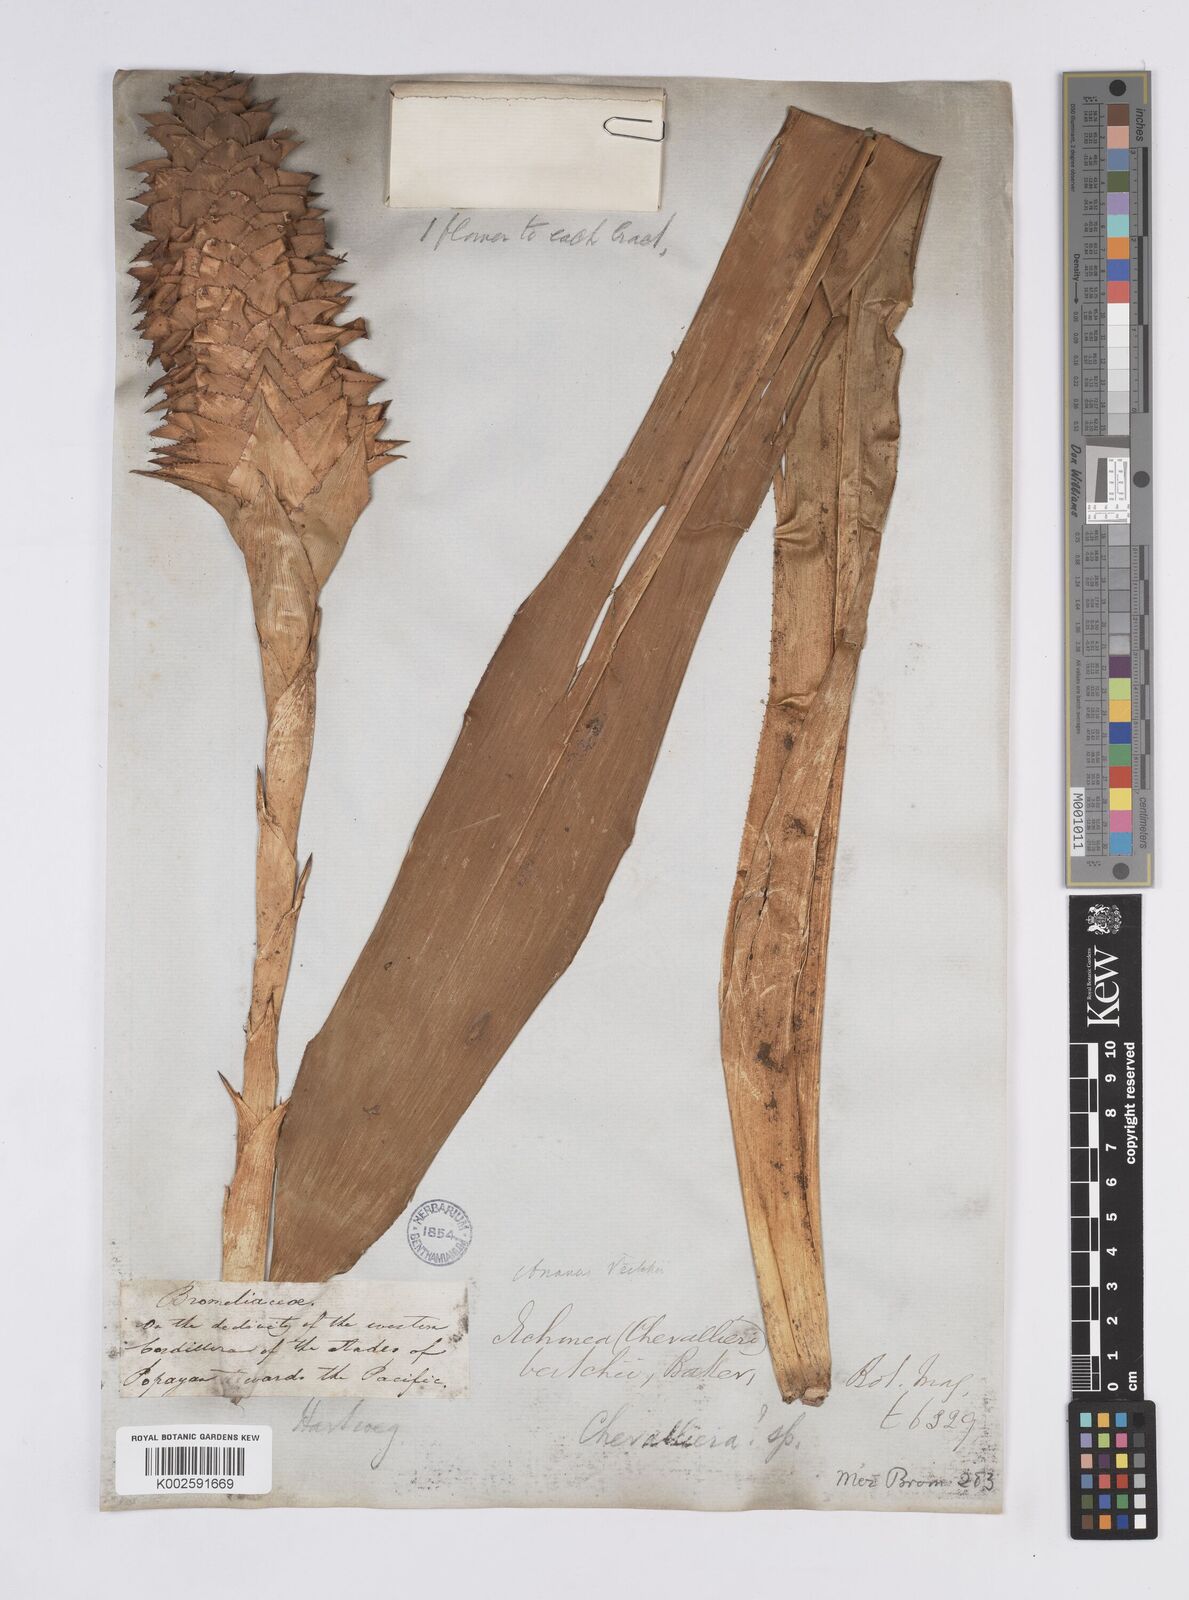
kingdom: Plantae
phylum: Tracheophyta
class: Liliopsida
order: Poales
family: Bromeliaceae
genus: Ronnbergia
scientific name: Ronnbergia veitchii
